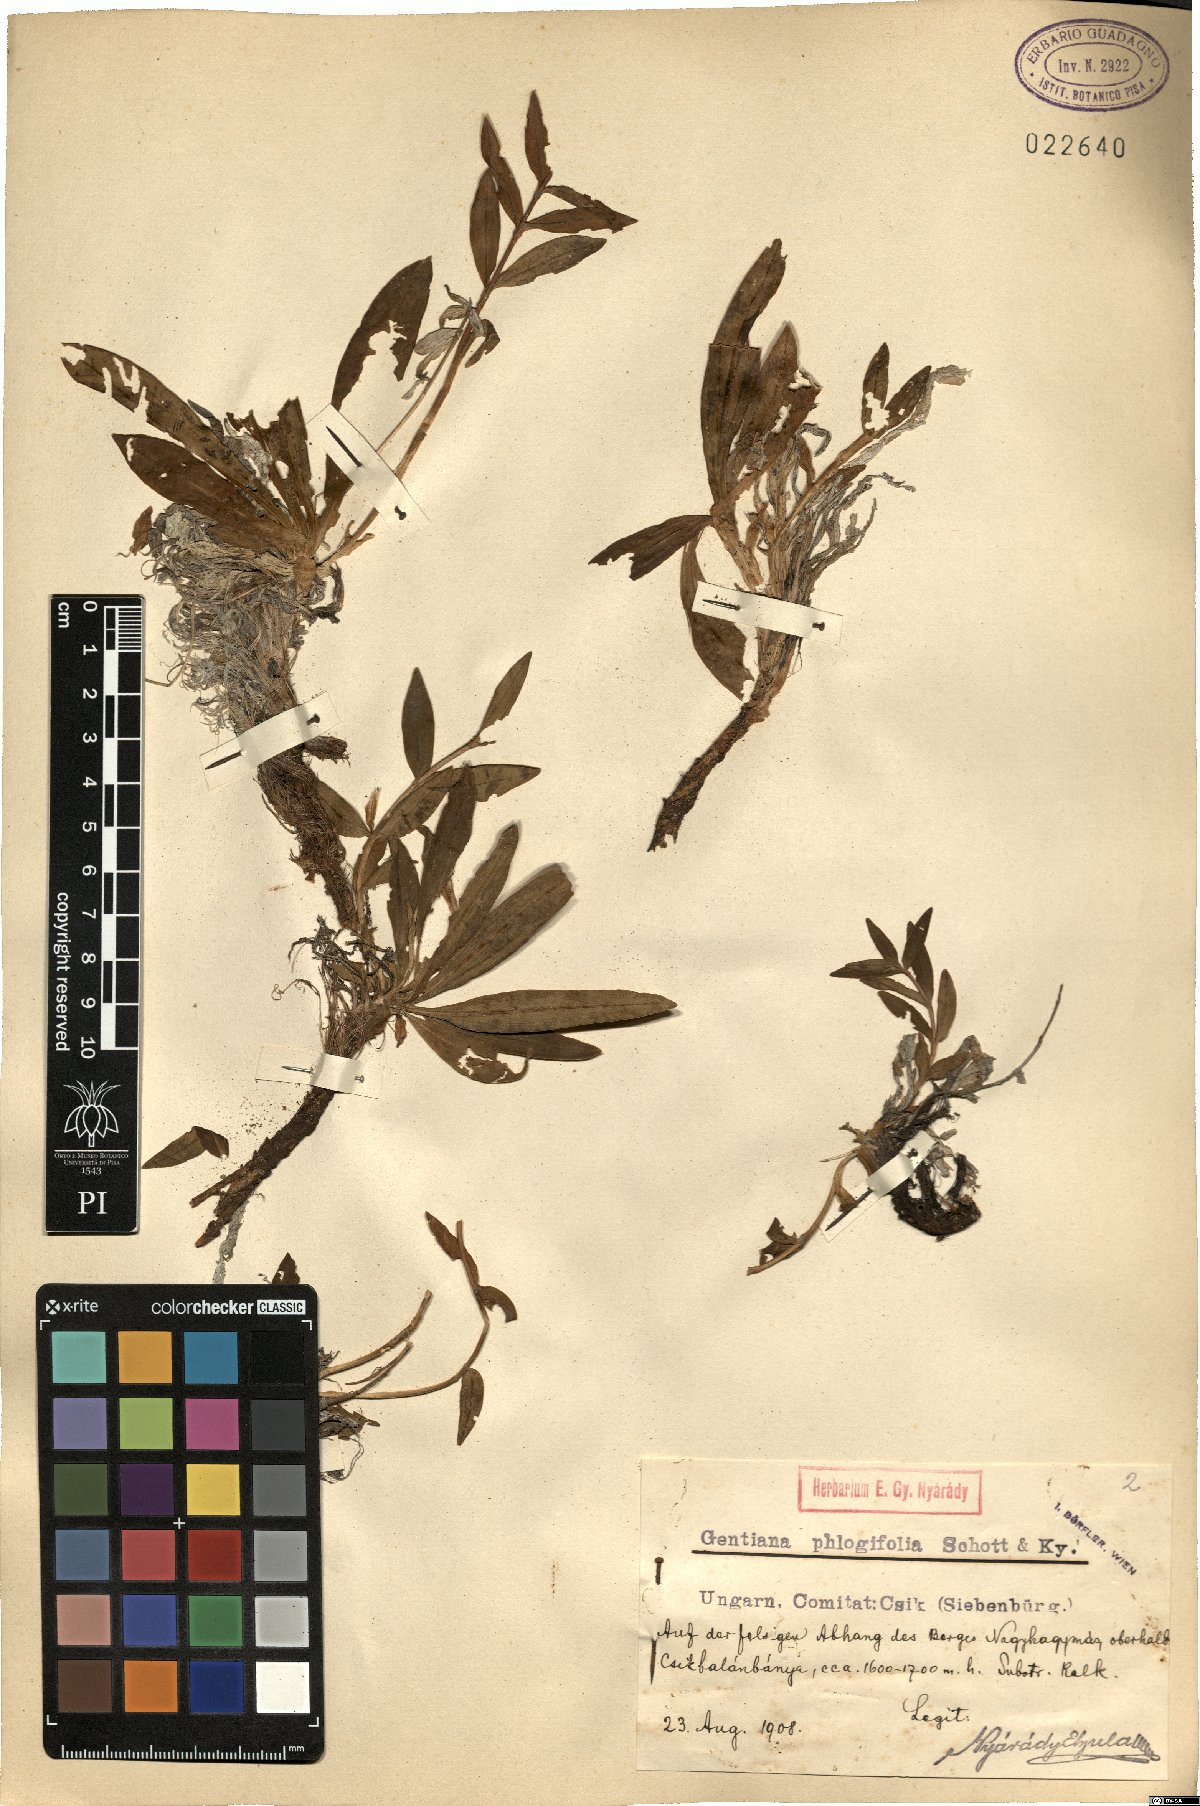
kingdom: Plantae
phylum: Tracheophyta
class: Magnoliopsida
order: Gentianales
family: Gentianaceae
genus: Gentiana
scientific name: Gentiana cruciata
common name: Cross gentian
